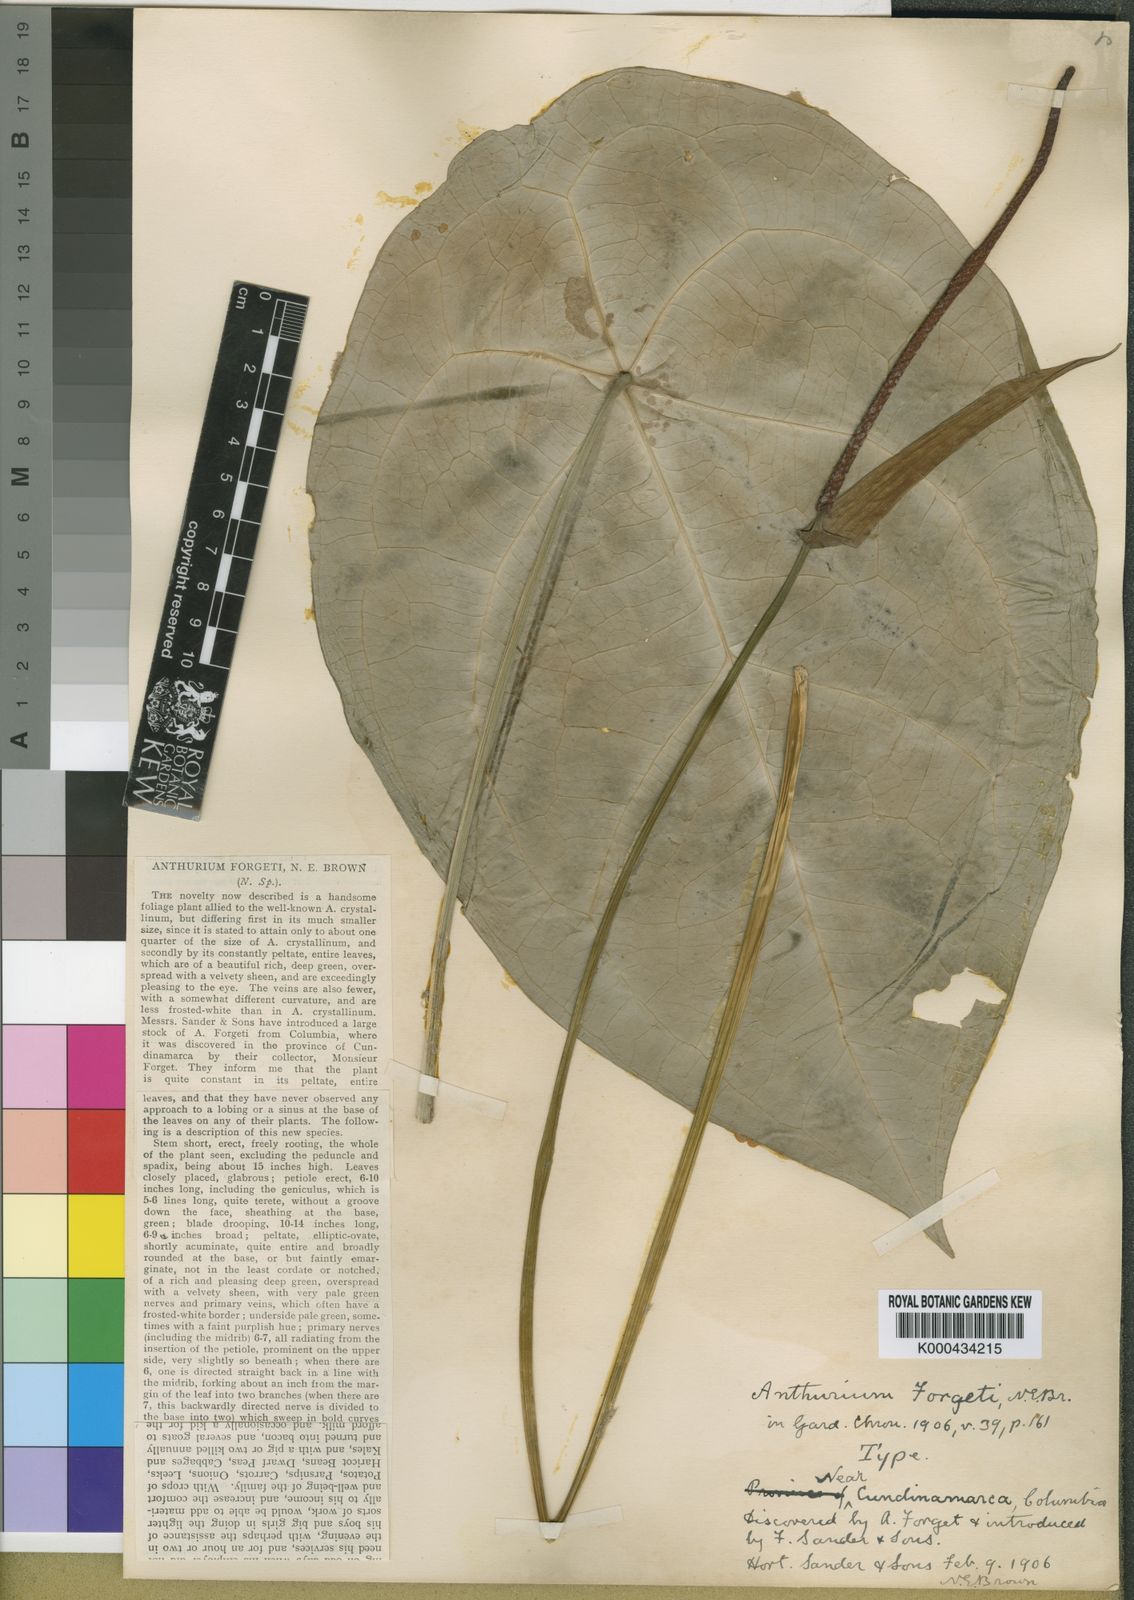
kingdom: Plantae
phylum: Tracheophyta
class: Liliopsida
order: Alismatales
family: Araceae
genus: Anthurium
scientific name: Anthurium forgetii
